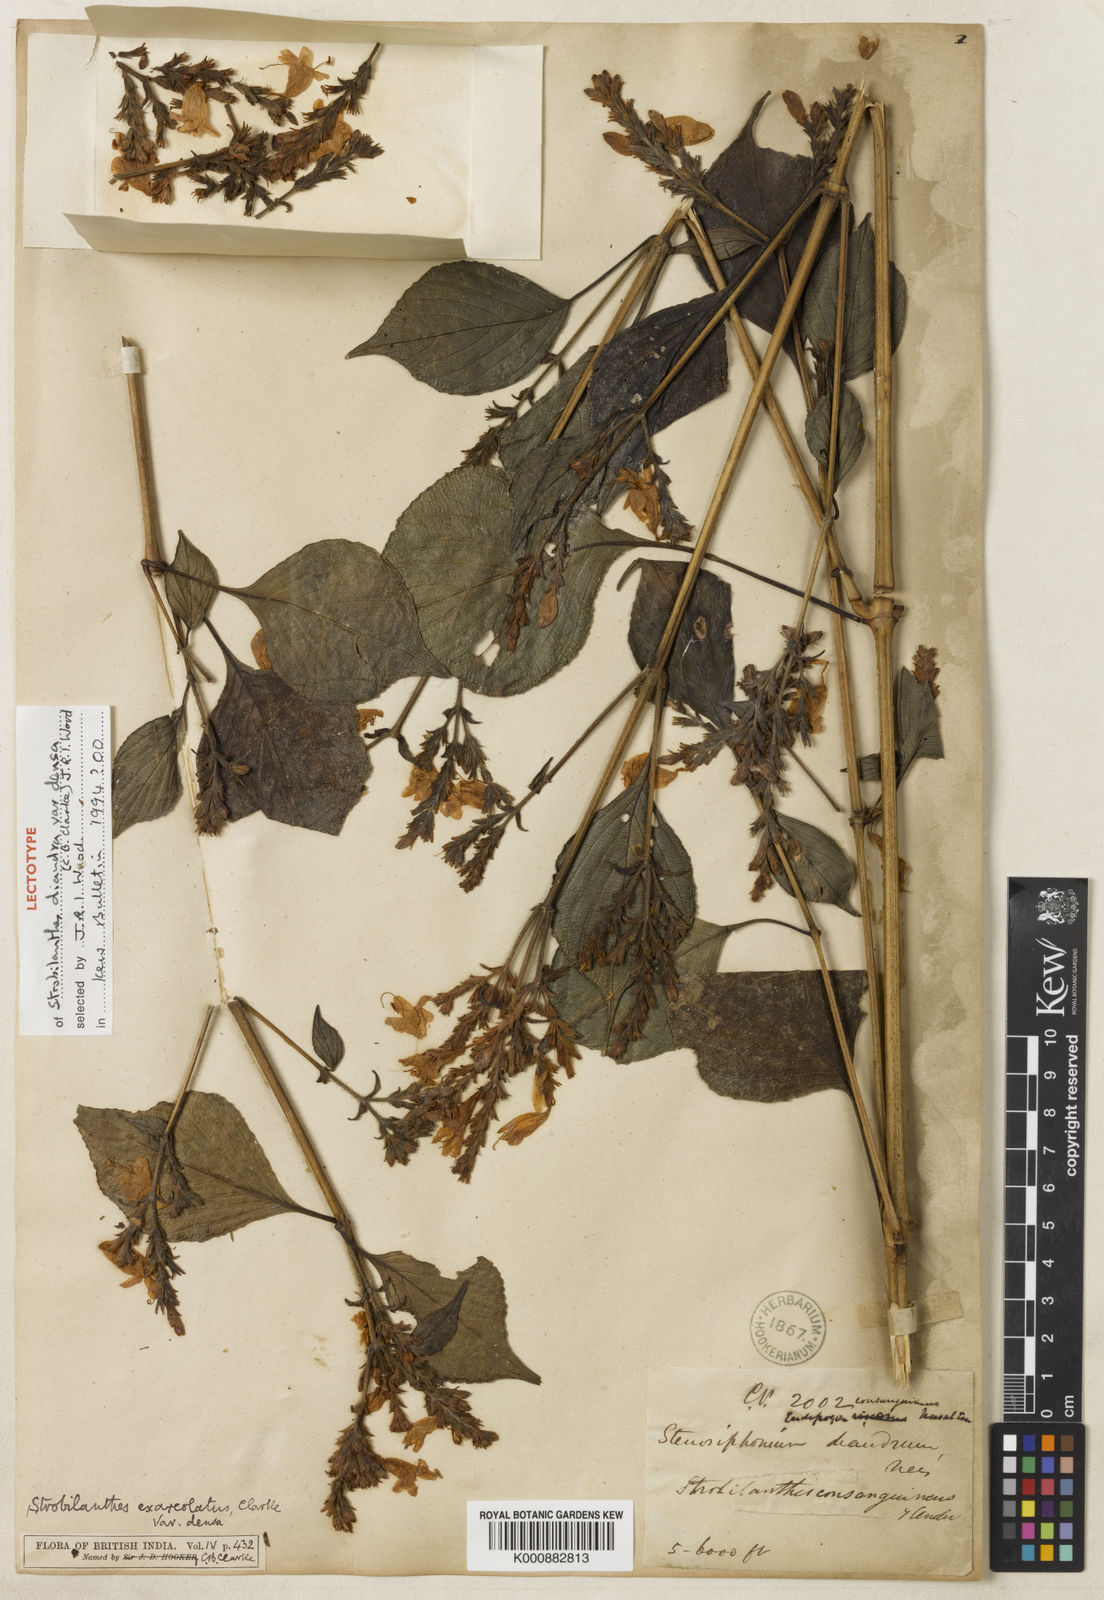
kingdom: Plantae
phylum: Tracheophyta
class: Magnoliopsida
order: Lamiales
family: Acanthaceae
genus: Strobilanthes
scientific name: Strobilanthes diandra
